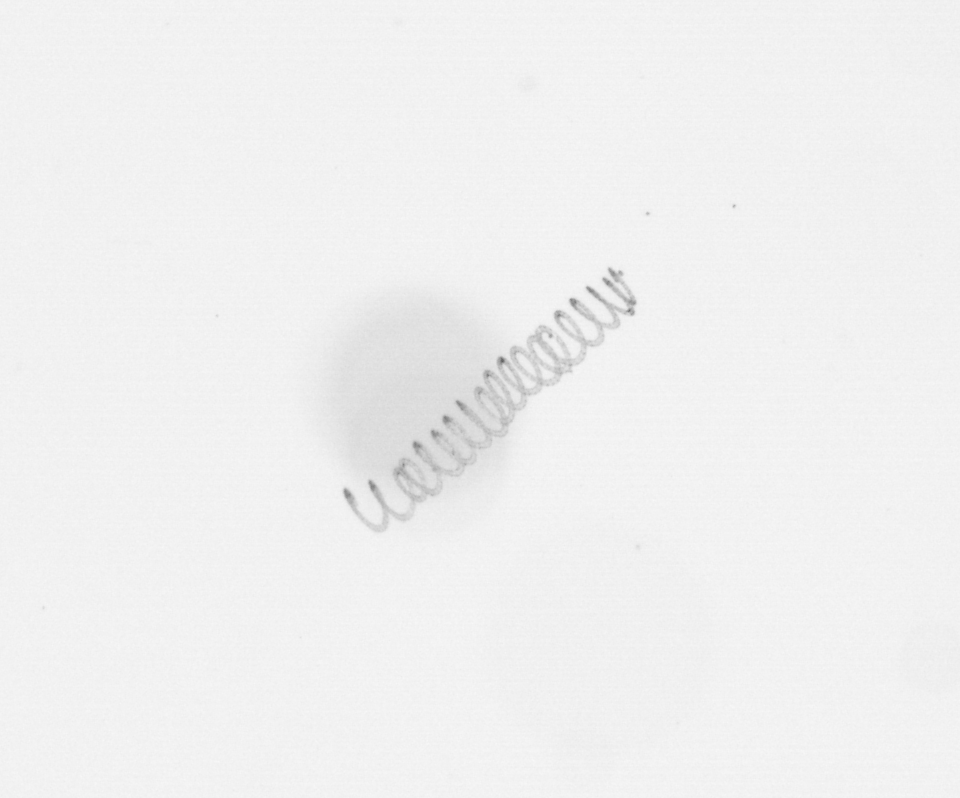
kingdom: Chromista
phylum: Ochrophyta
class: Bacillariophyceae
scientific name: Bacillariophyceae
